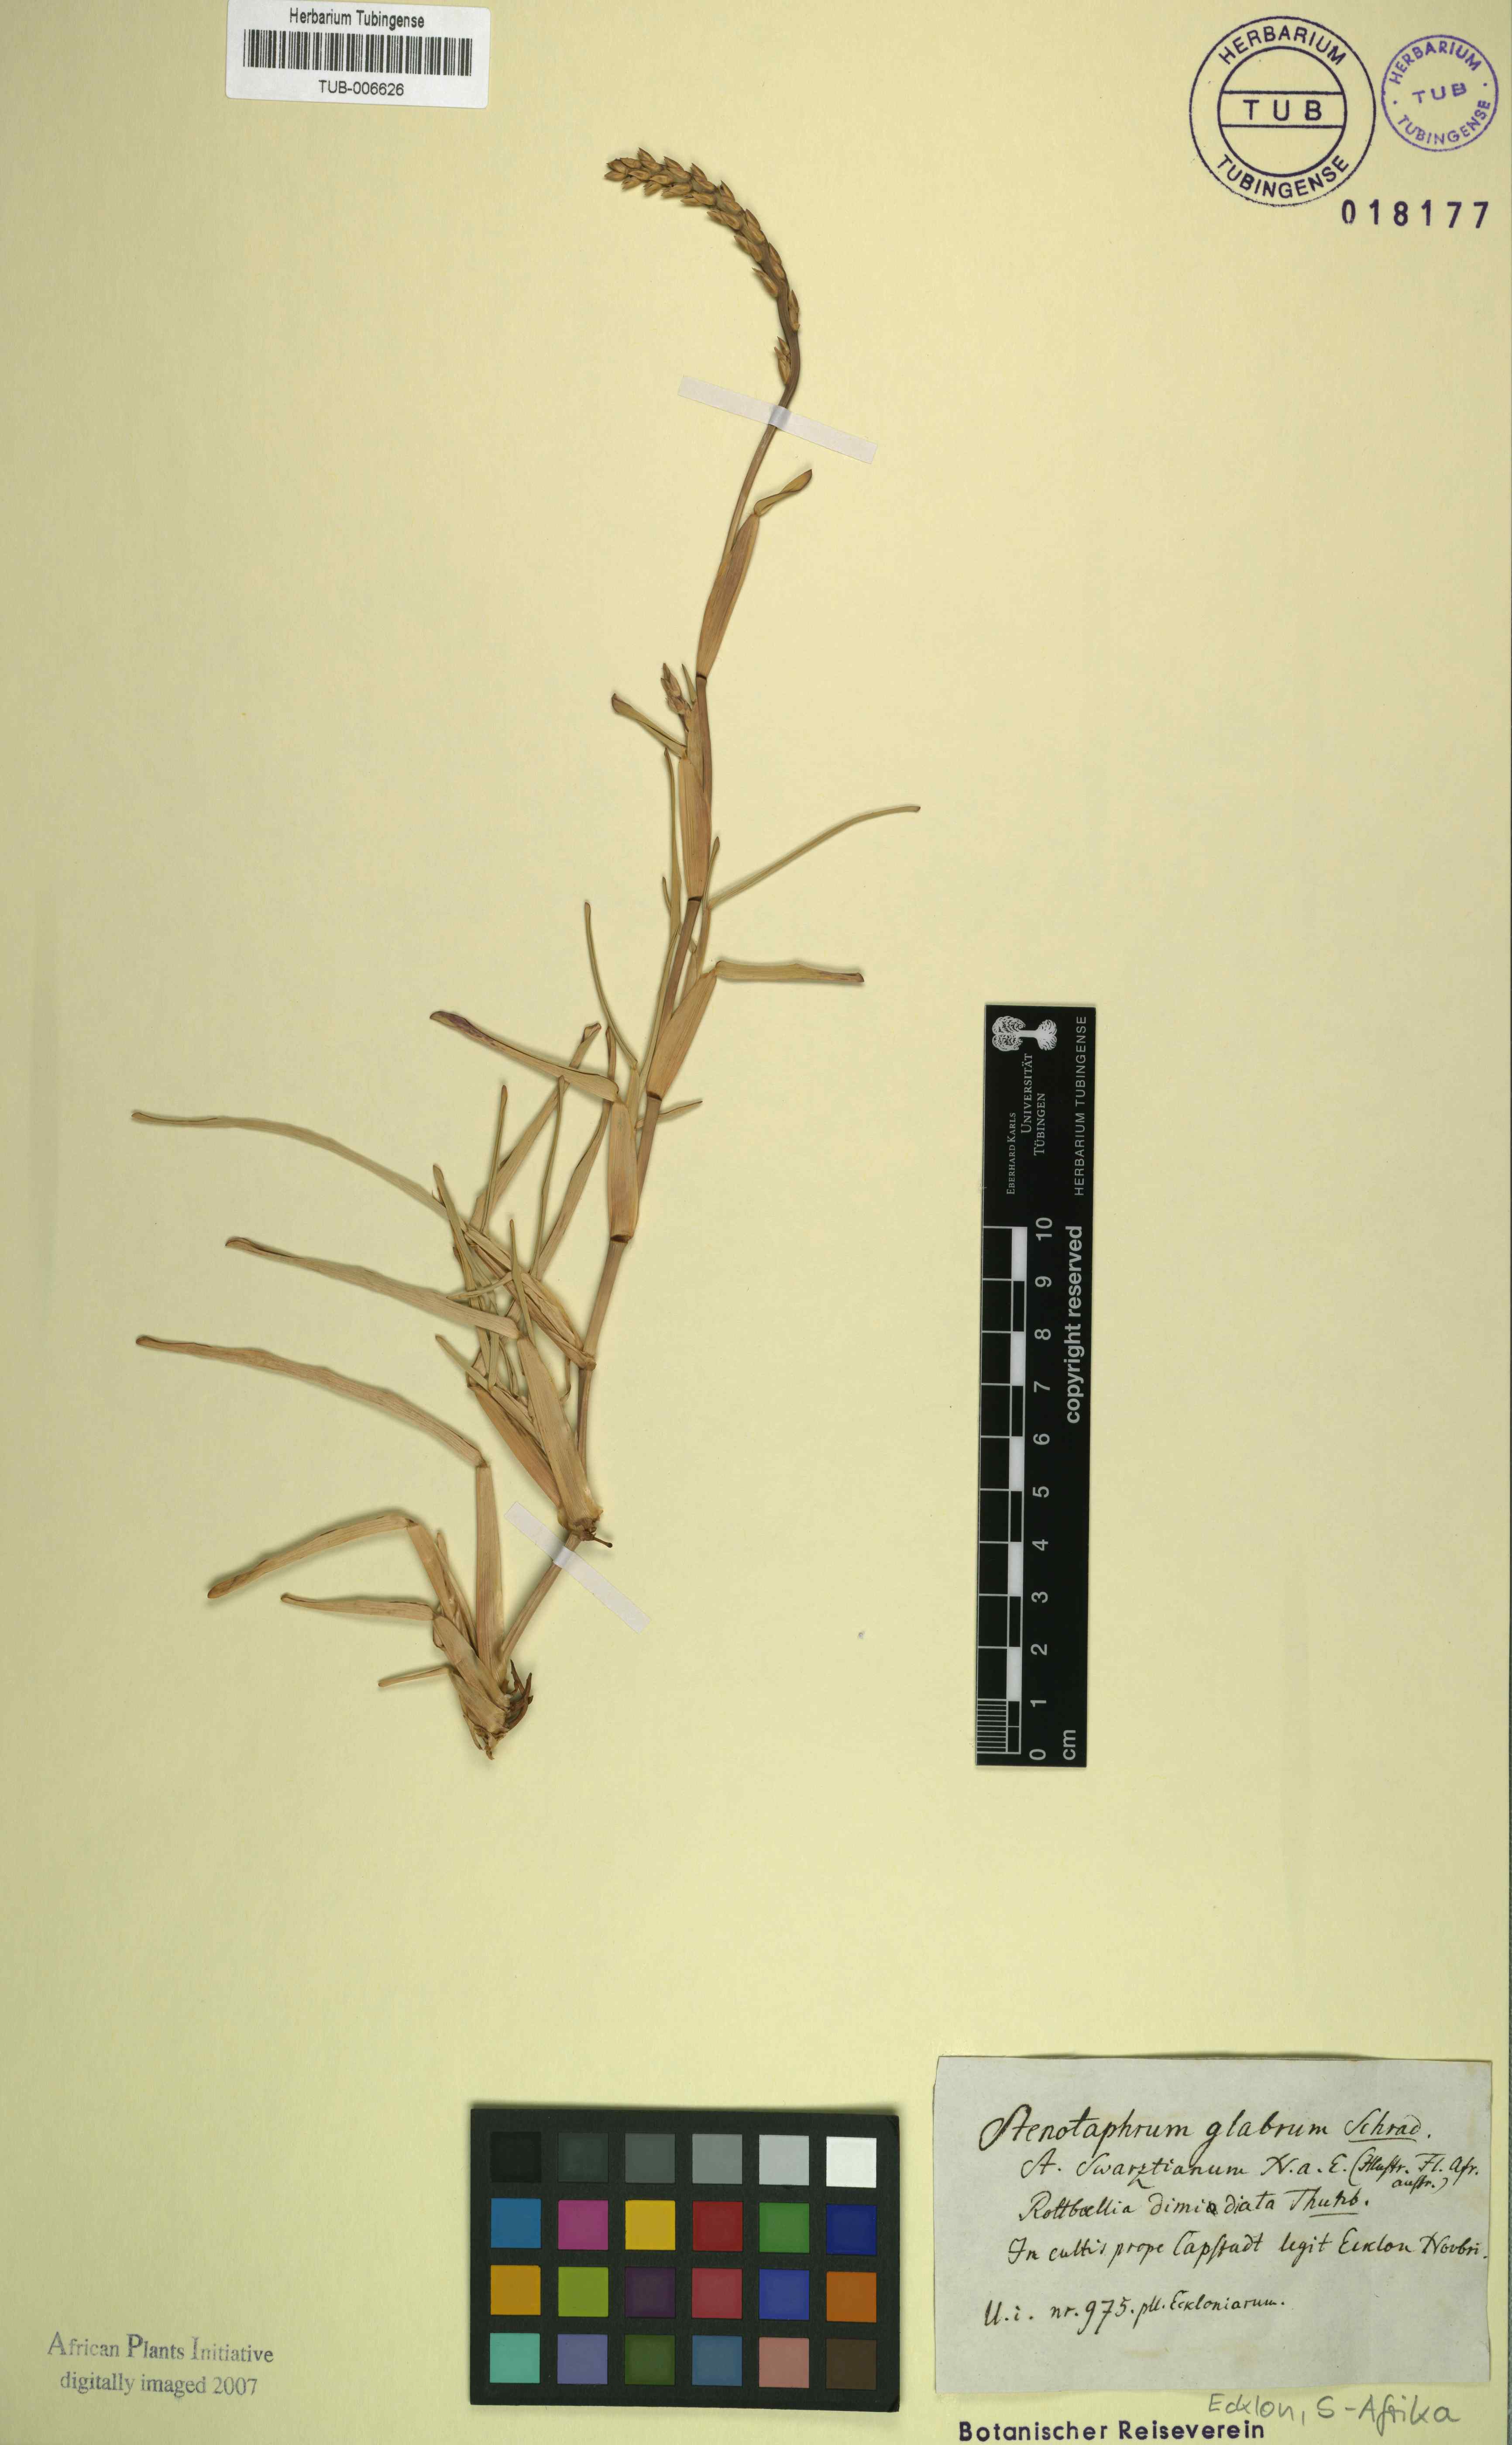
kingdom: Plantae
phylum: Tracheophyta
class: Liliopsida
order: Poales
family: Poaceae
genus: Stenotaphrum
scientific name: Stenotaphrum dimidiatum
